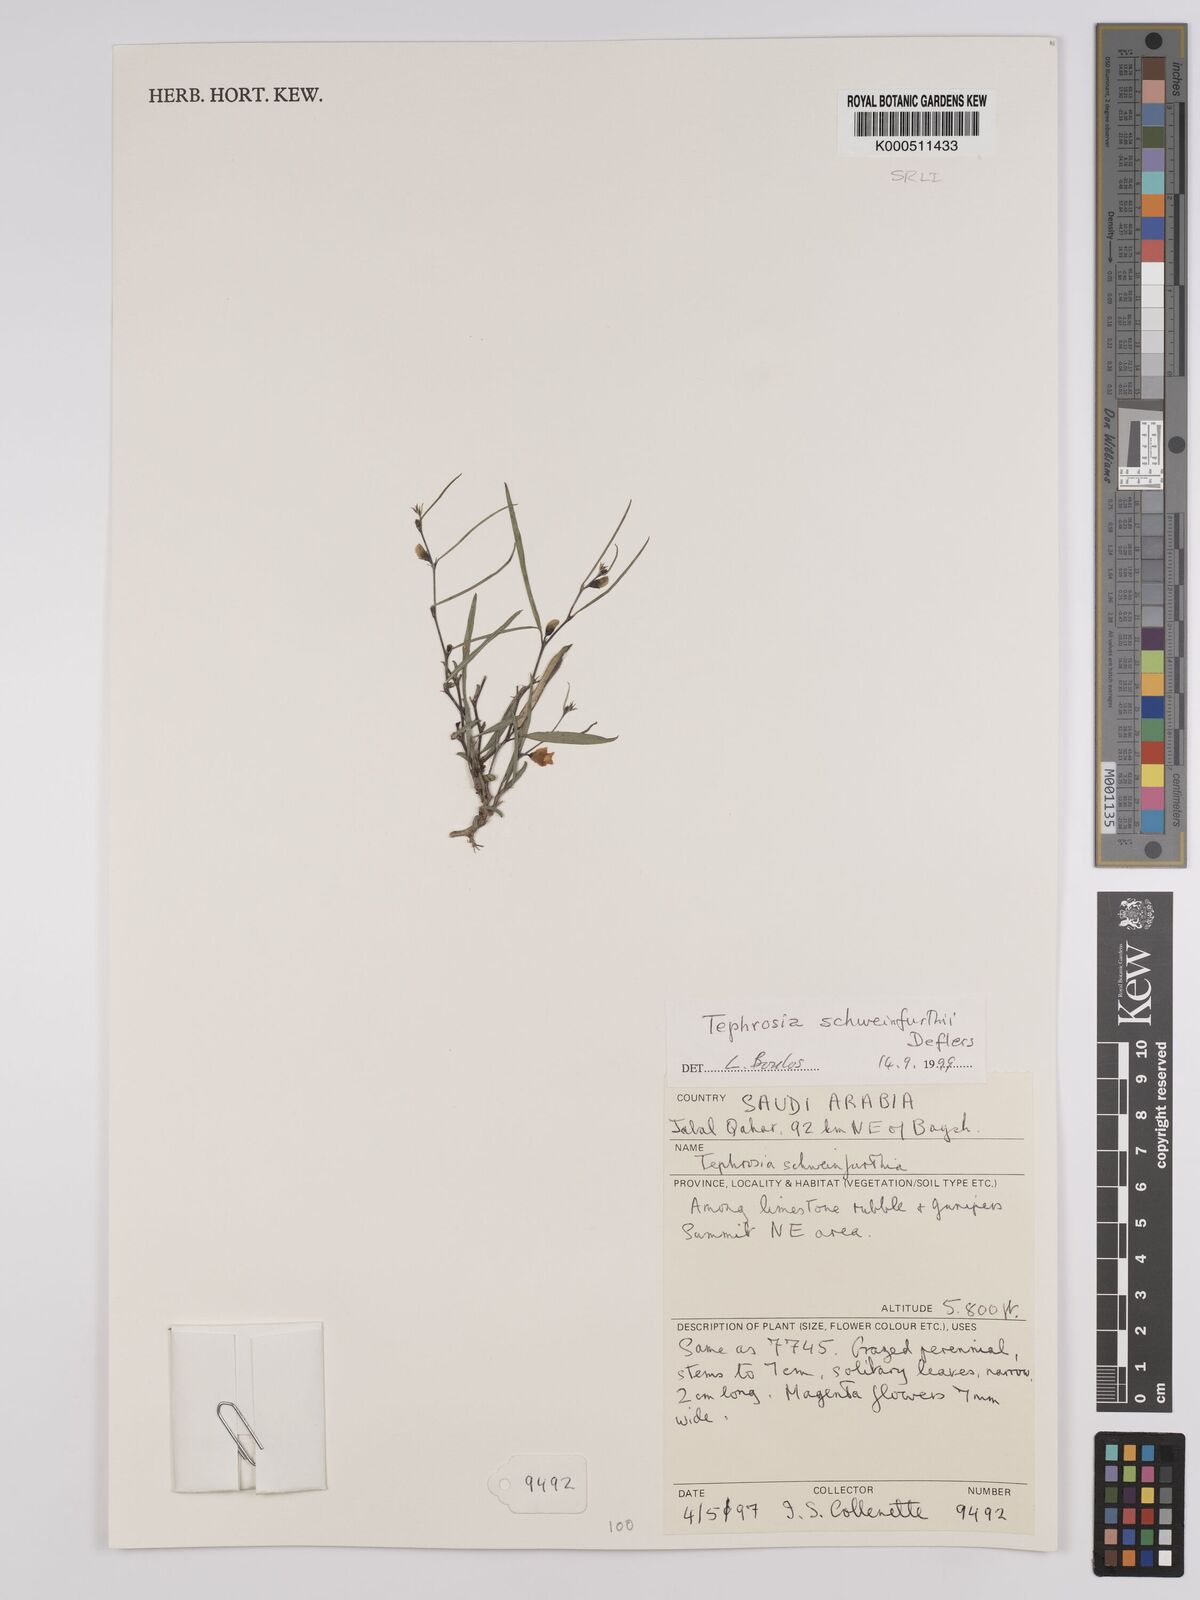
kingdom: Plantae
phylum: Tracheophyta
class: Magnoliopsida
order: Fabales
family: Fabaceae
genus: Tephrosia
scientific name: Tephrosia heterophylla
